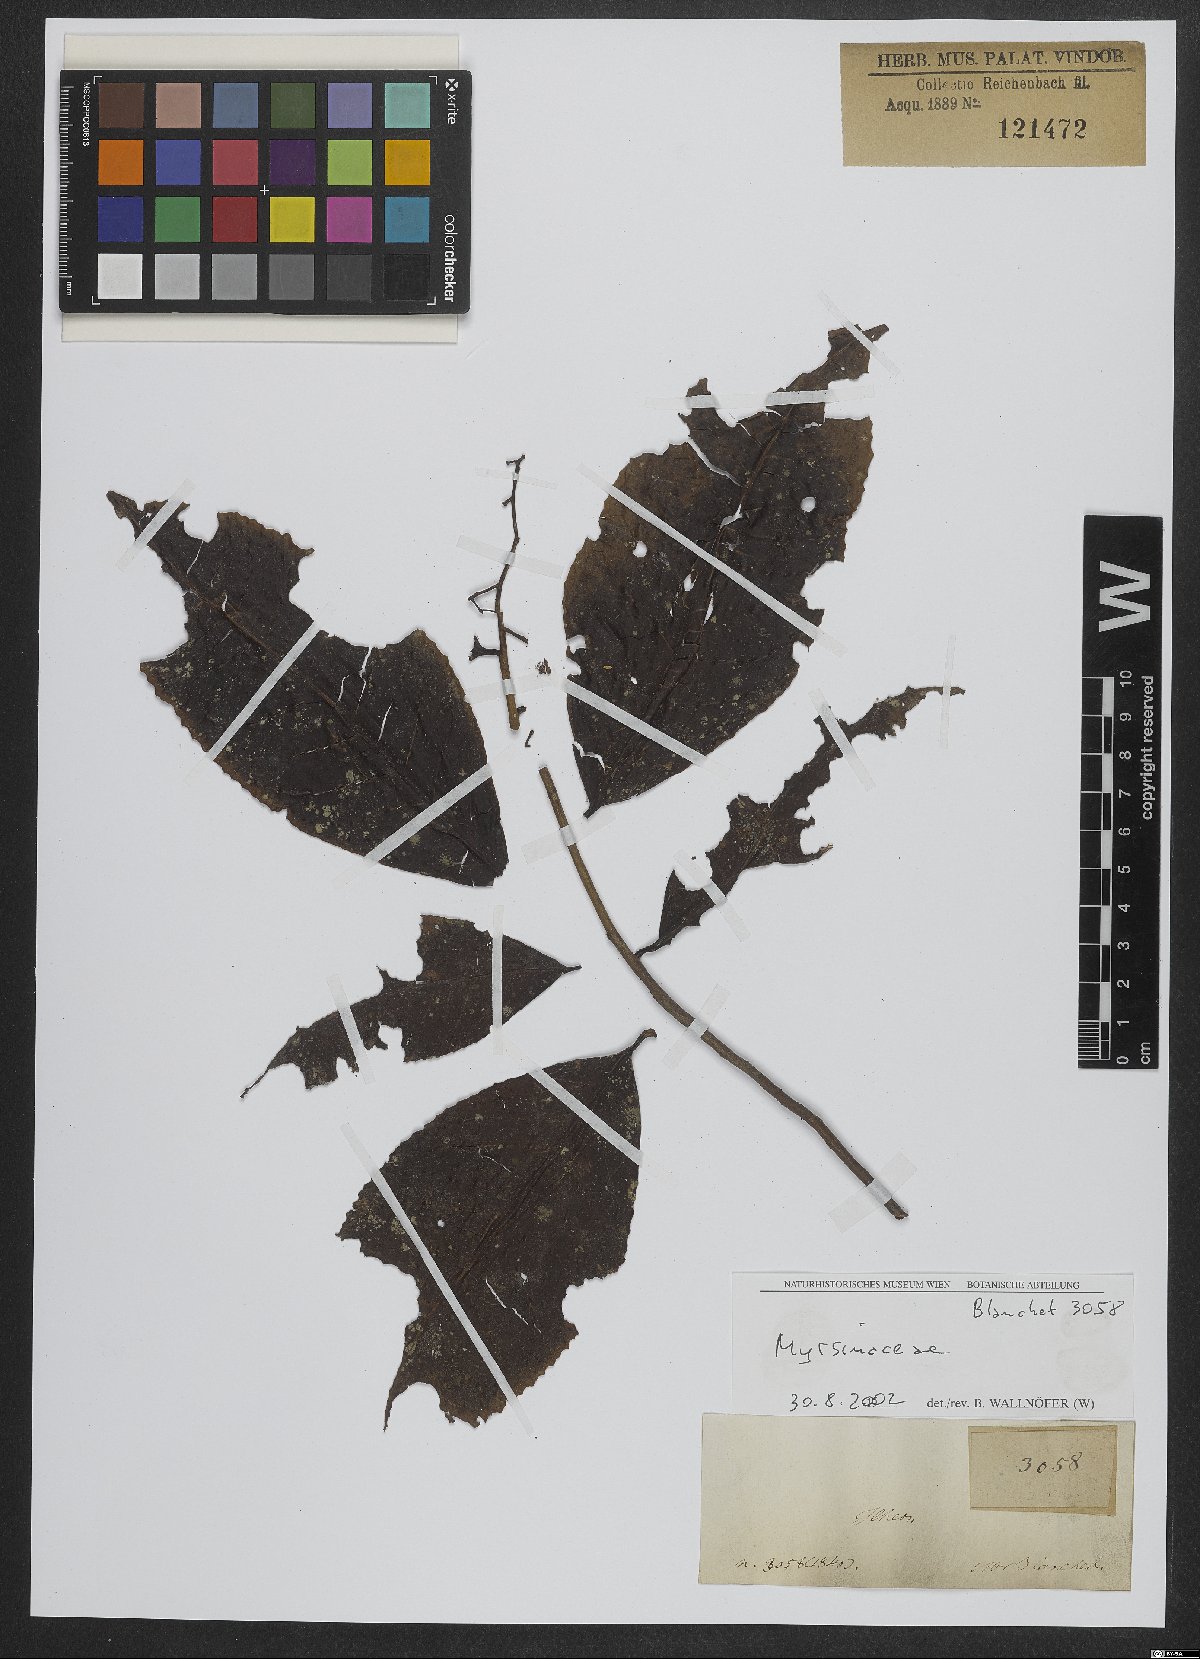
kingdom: Plantae
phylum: Tracheophyta
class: Magnoliopsida
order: Ericales
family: Primulaceae
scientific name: Primulaceae
